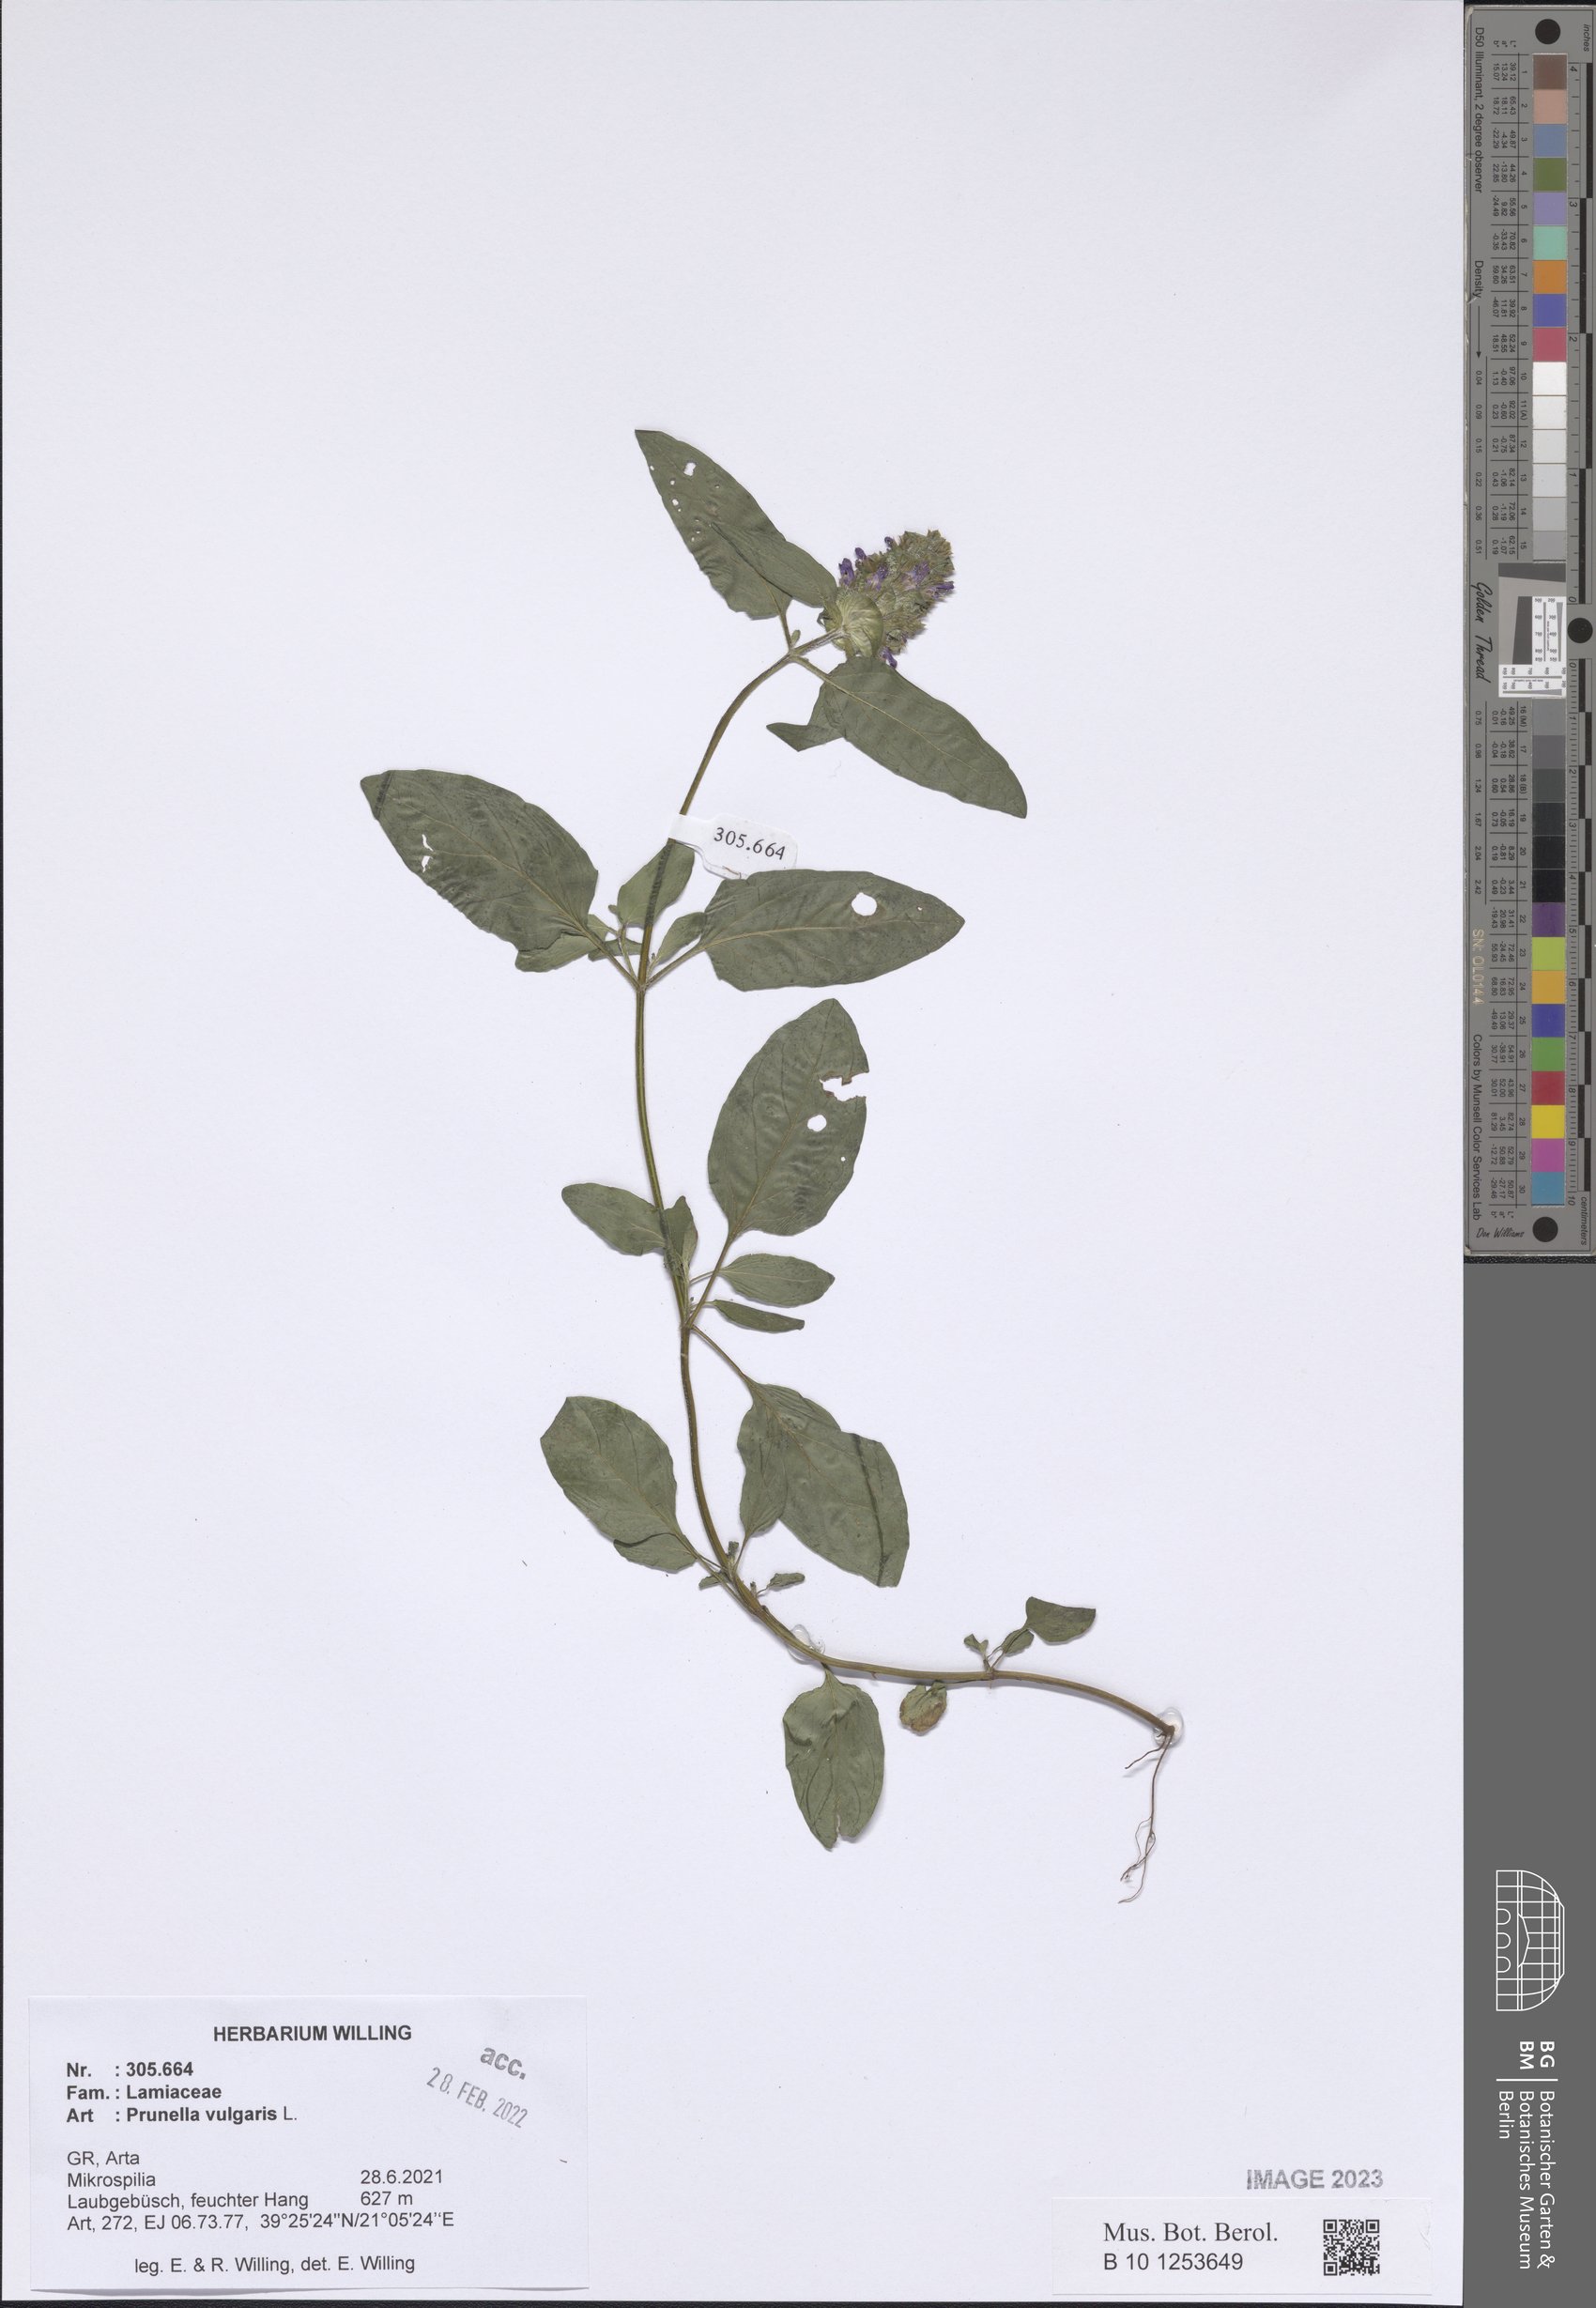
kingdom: Plantae
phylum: Tracheophyta
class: Magnoliopsida
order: Lamiales
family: Lamiaceae
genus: Prunella
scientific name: Prunella vulgaris
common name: Heal-all
